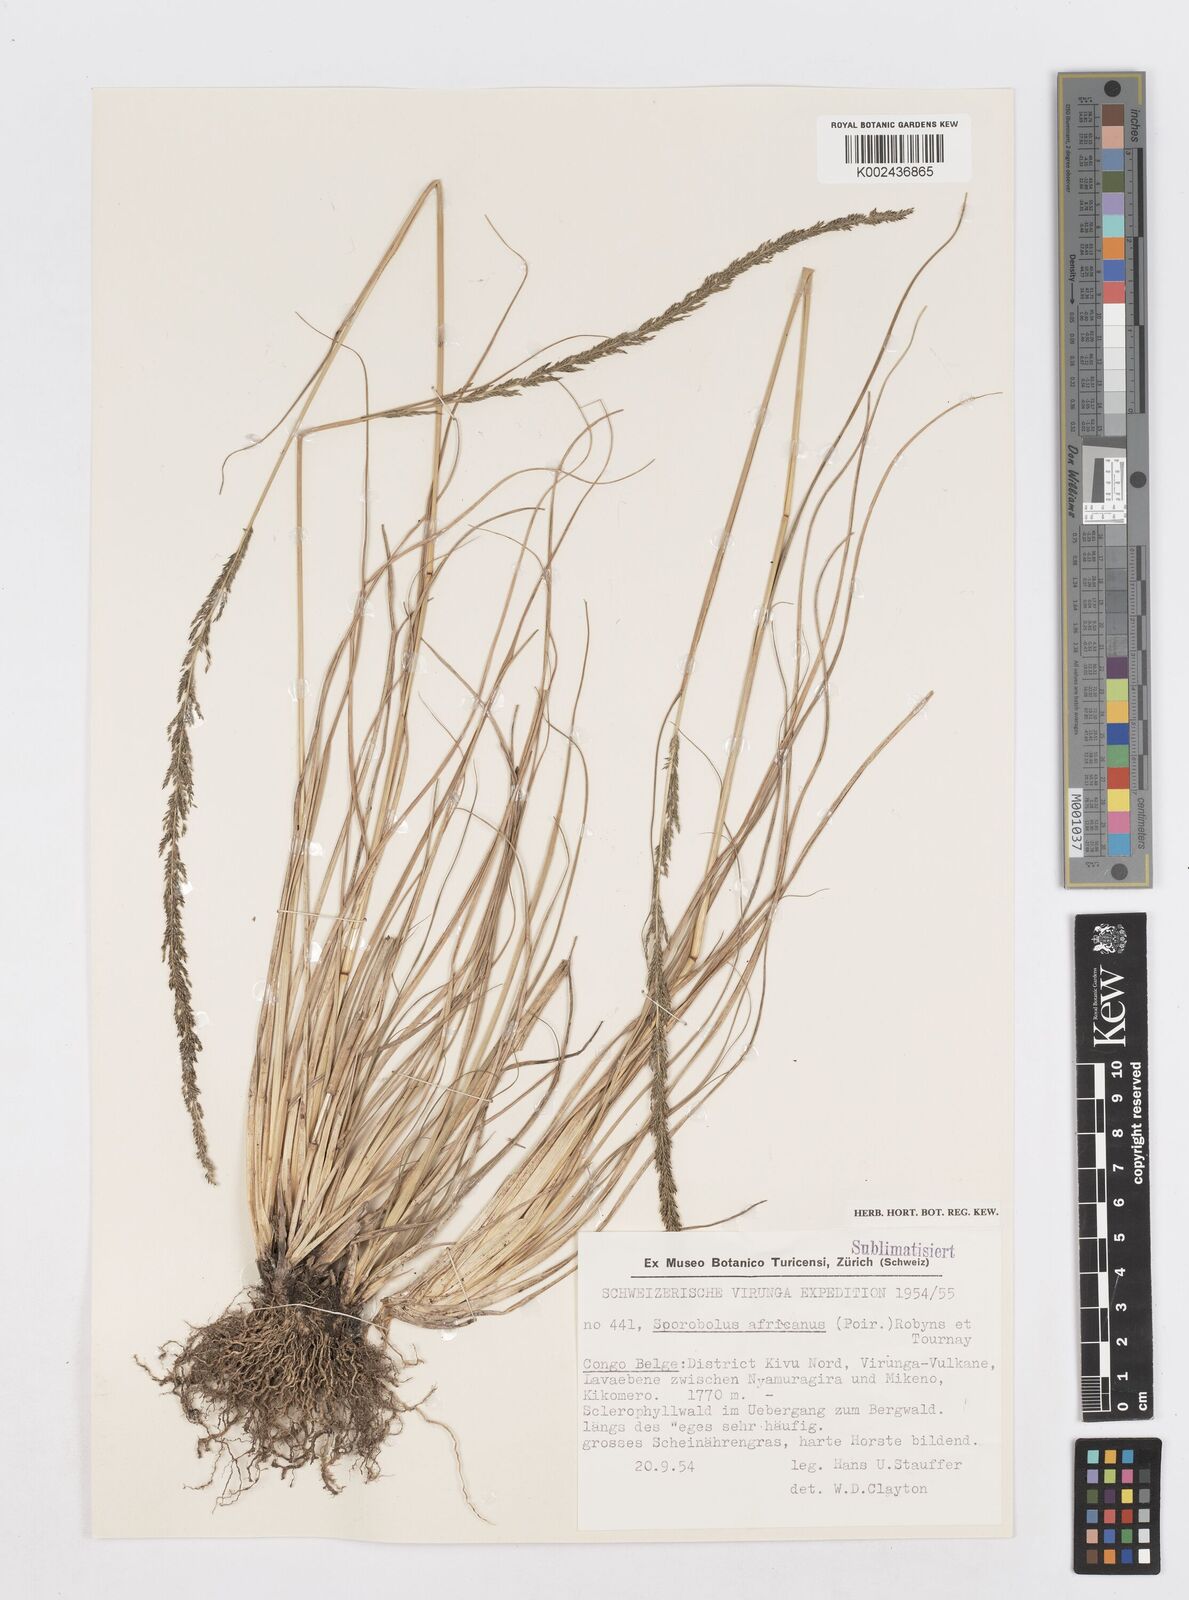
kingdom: Plantae
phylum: Tracheophyta
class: Liliopsida
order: Poales
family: Poaceae
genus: Sporobolus
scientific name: Sporobolus africanus
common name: African dropseed
